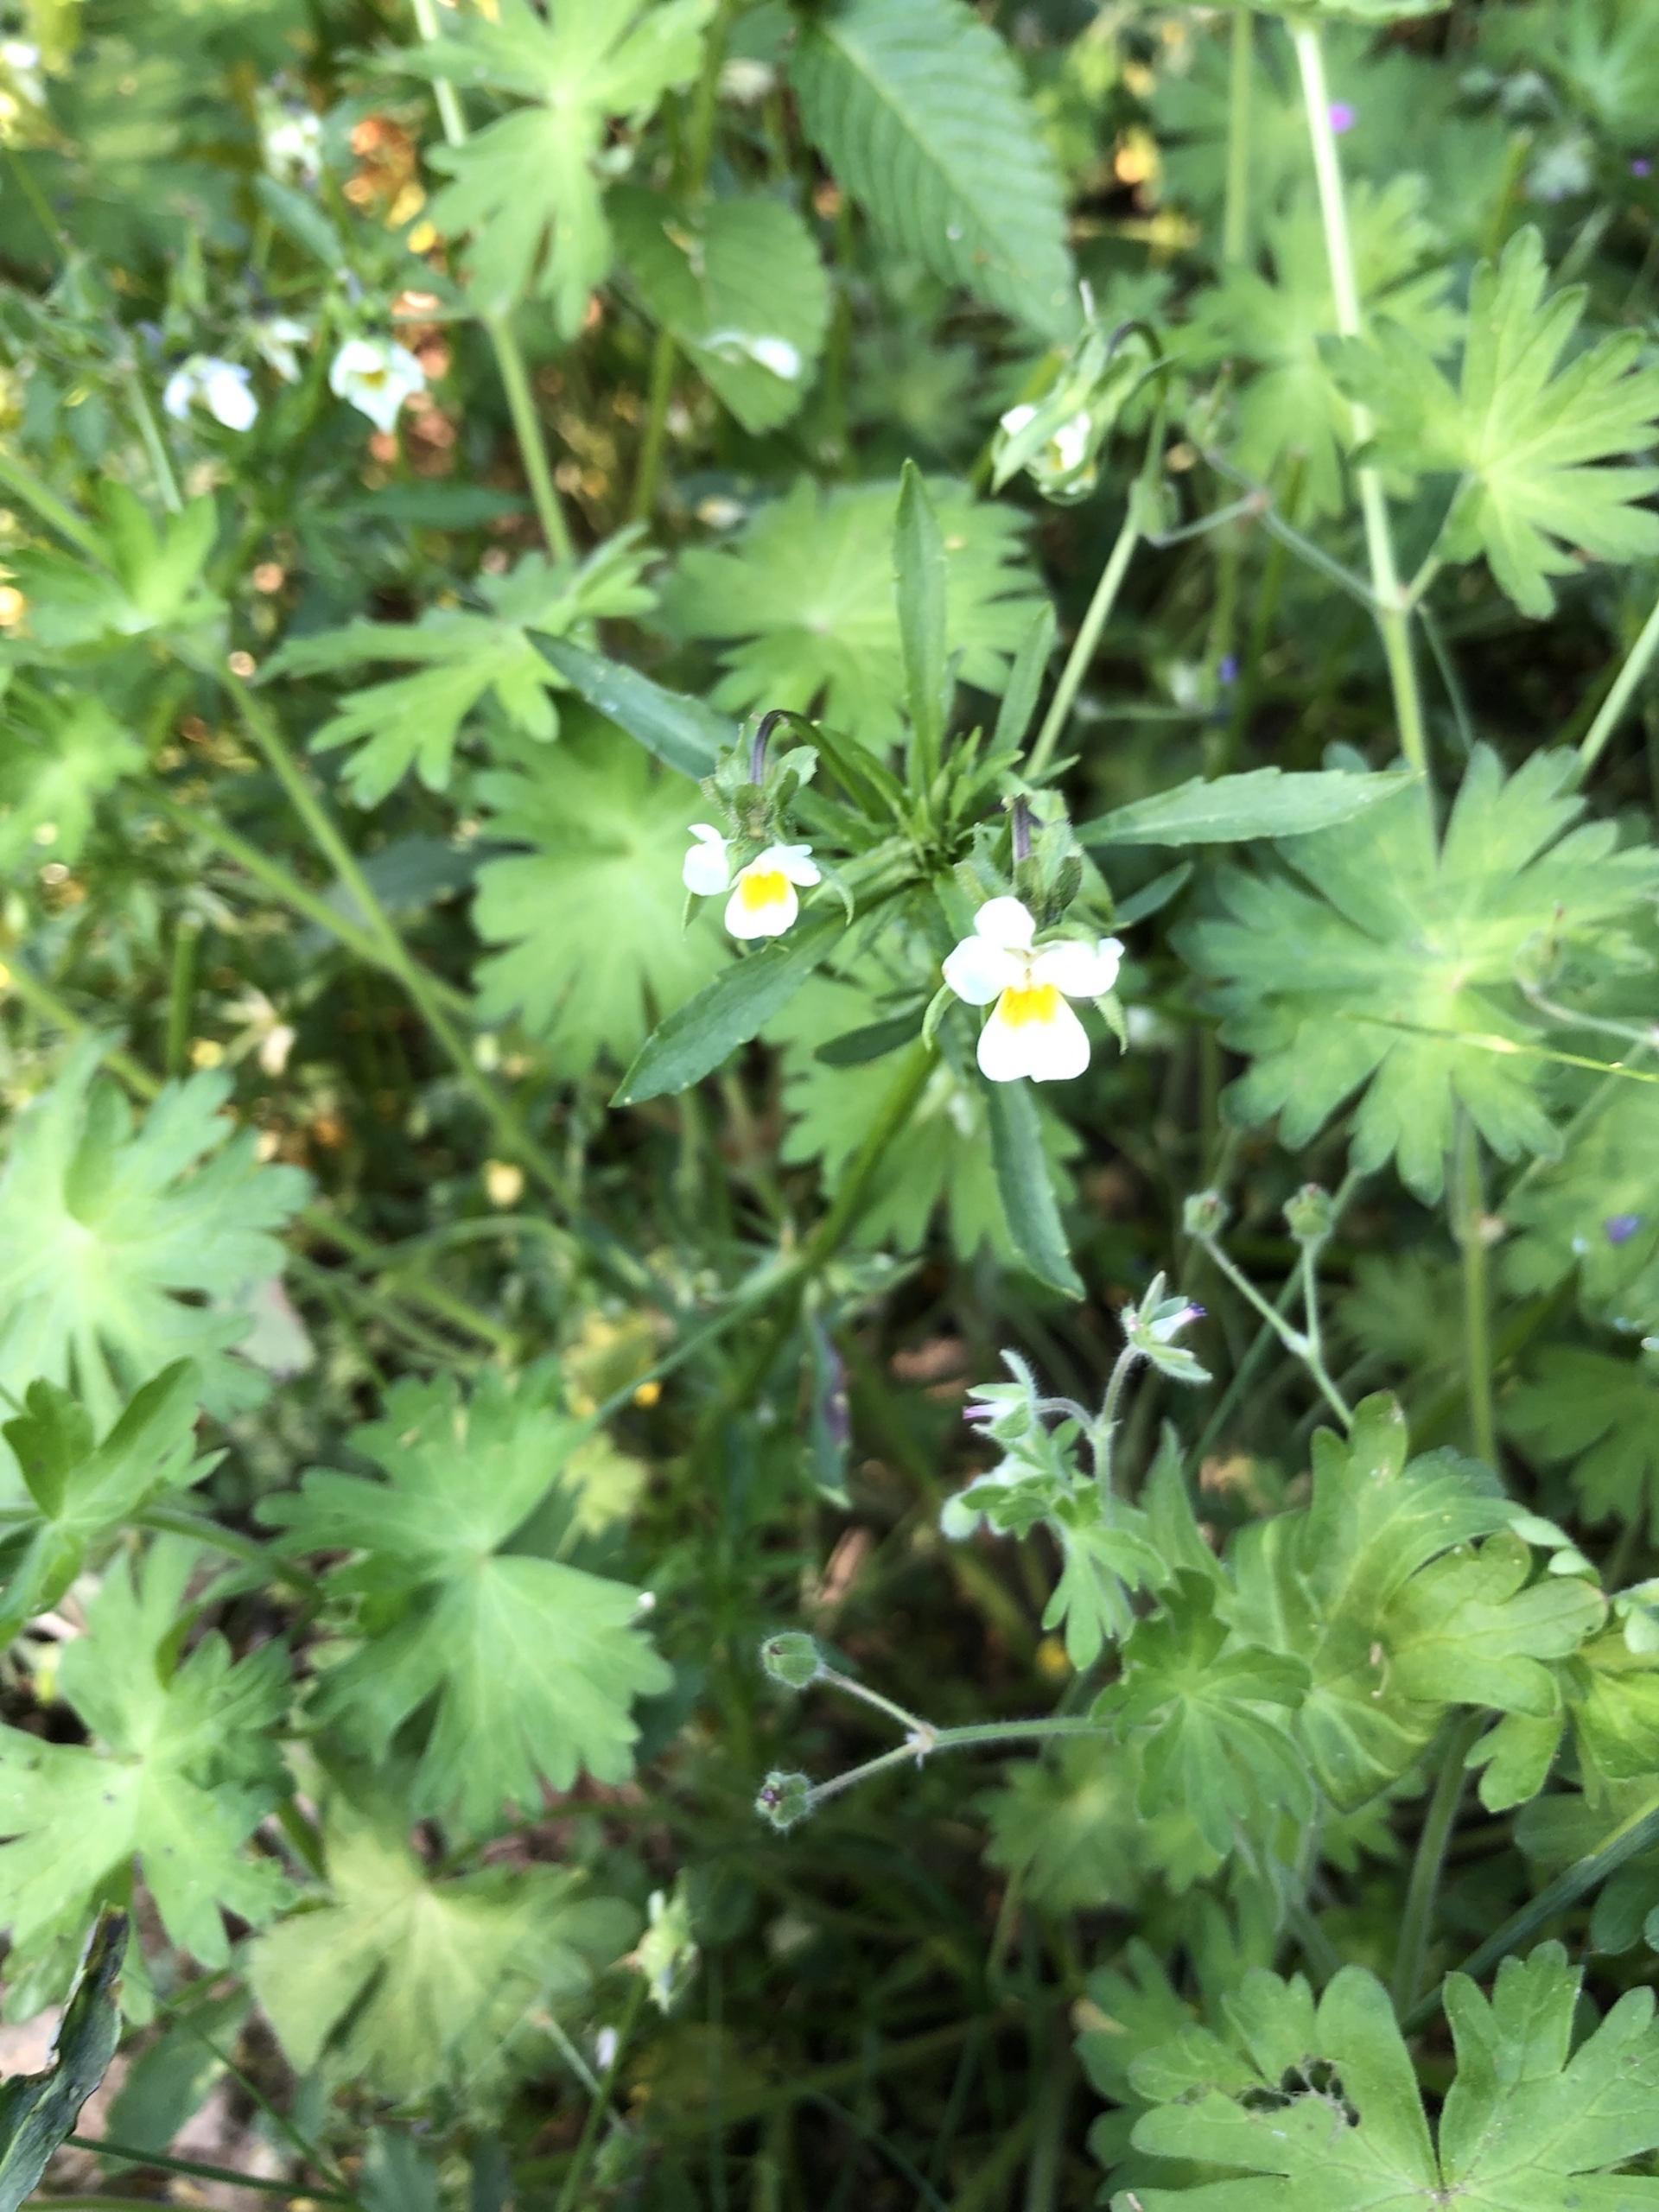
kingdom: Plantae
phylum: Tracheophyta
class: Magnoliopsida
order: Malpighiales
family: Violaceae
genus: Viola
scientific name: Viola arvensis
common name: Ager-stedmoderblomst
